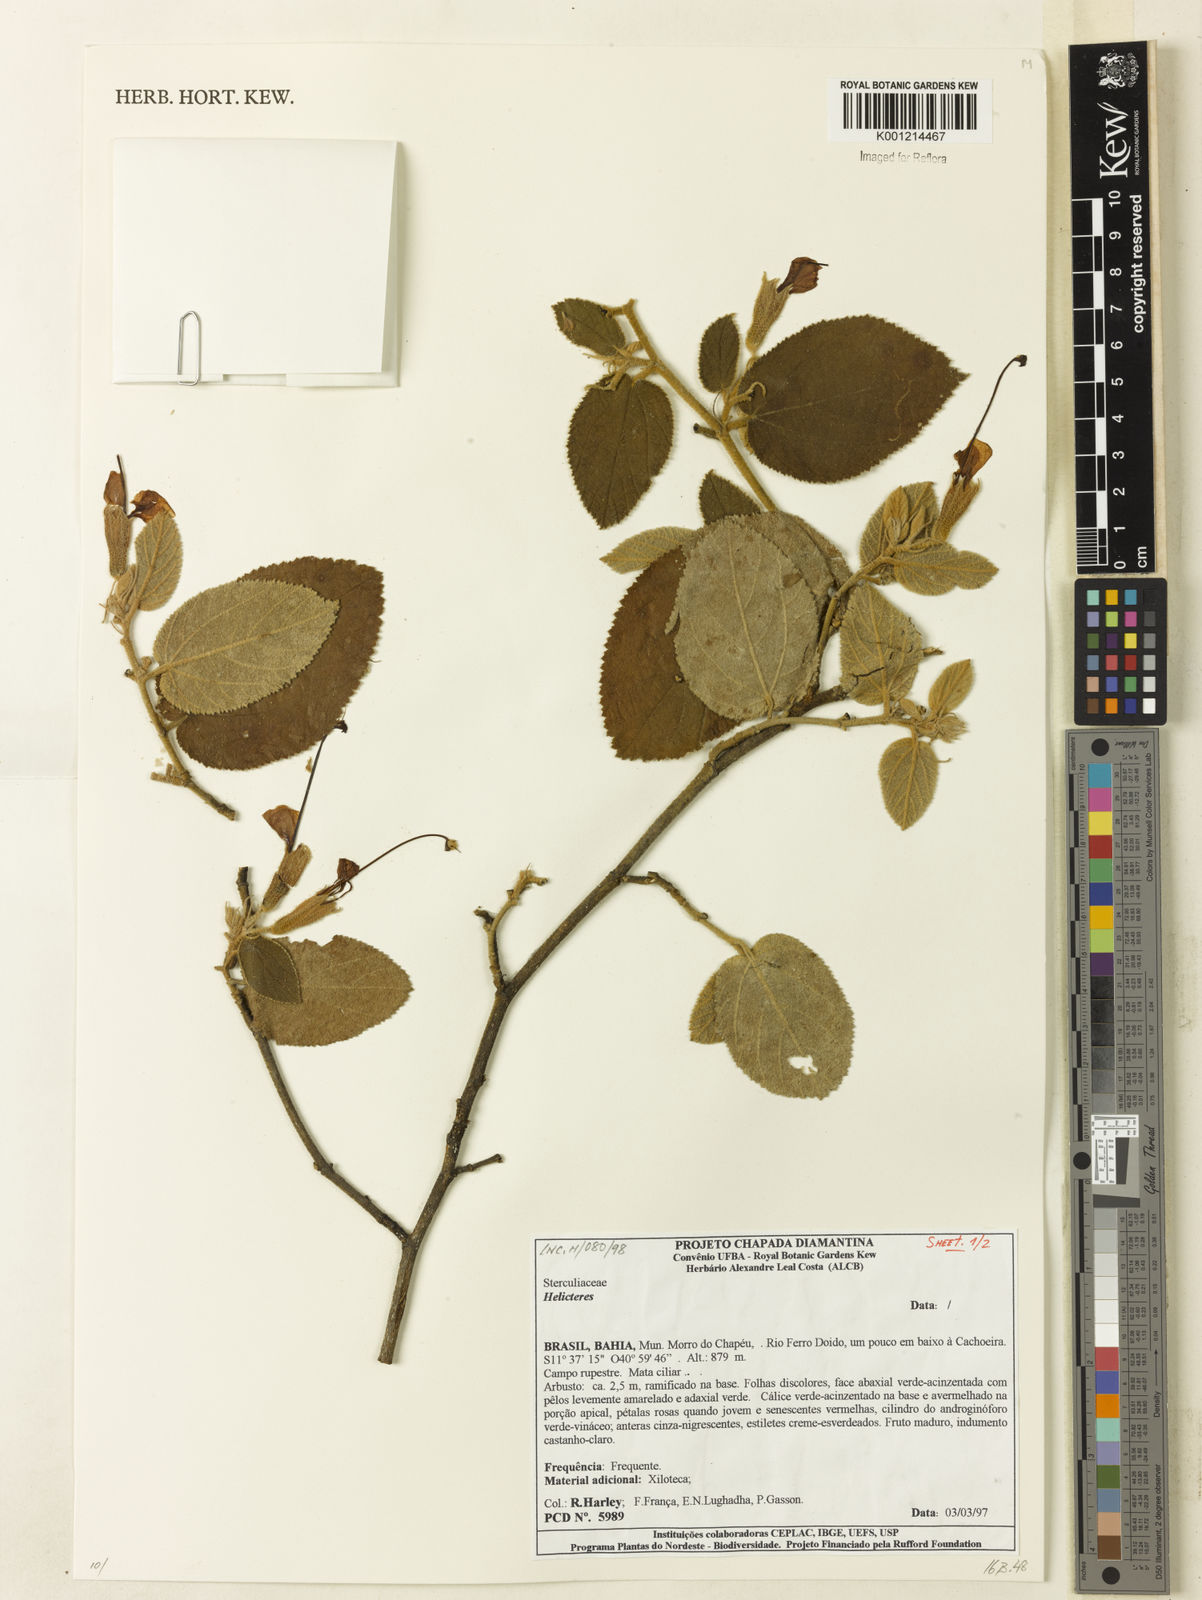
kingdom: Plantae
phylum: Tracheophyta
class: Magnoliopsida
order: Malvales
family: Malvaceae
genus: Helicteres
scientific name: Helicteres
